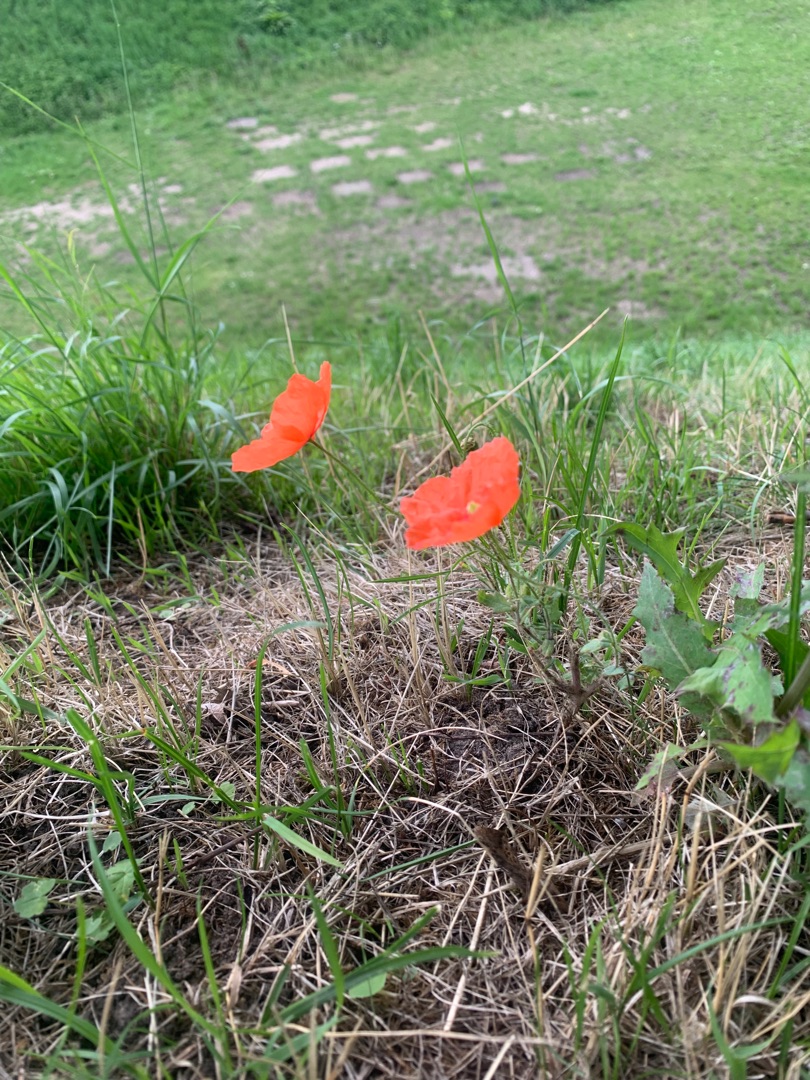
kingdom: Plantae
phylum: Tracheophyta
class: Magnoliopsida
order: Ranunculales
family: Papaveraceae
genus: Papaver
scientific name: Papaver rhoeas
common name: Korn-valmue
